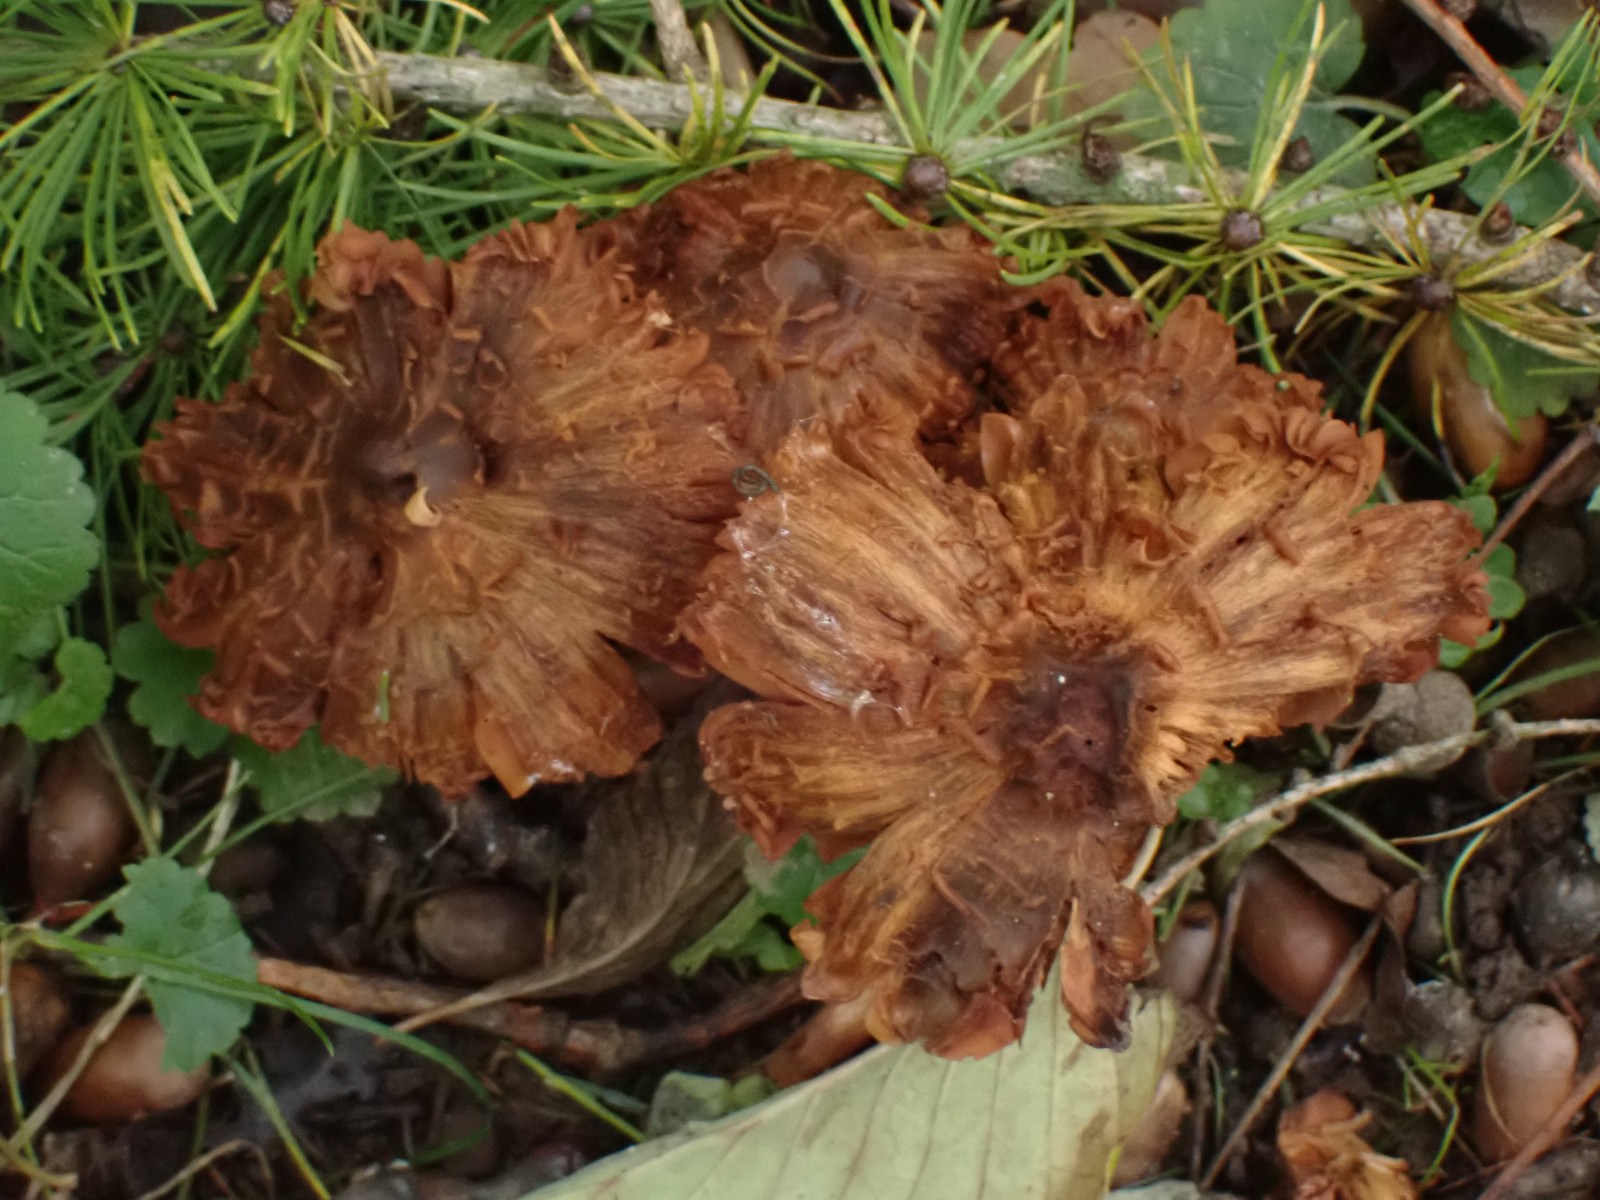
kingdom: Fungi
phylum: Basidiomycota
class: Agaricomycetes
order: Agaricales
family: Cortinariaceae
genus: Cortinarius
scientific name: Cortinarius hinnuleus
